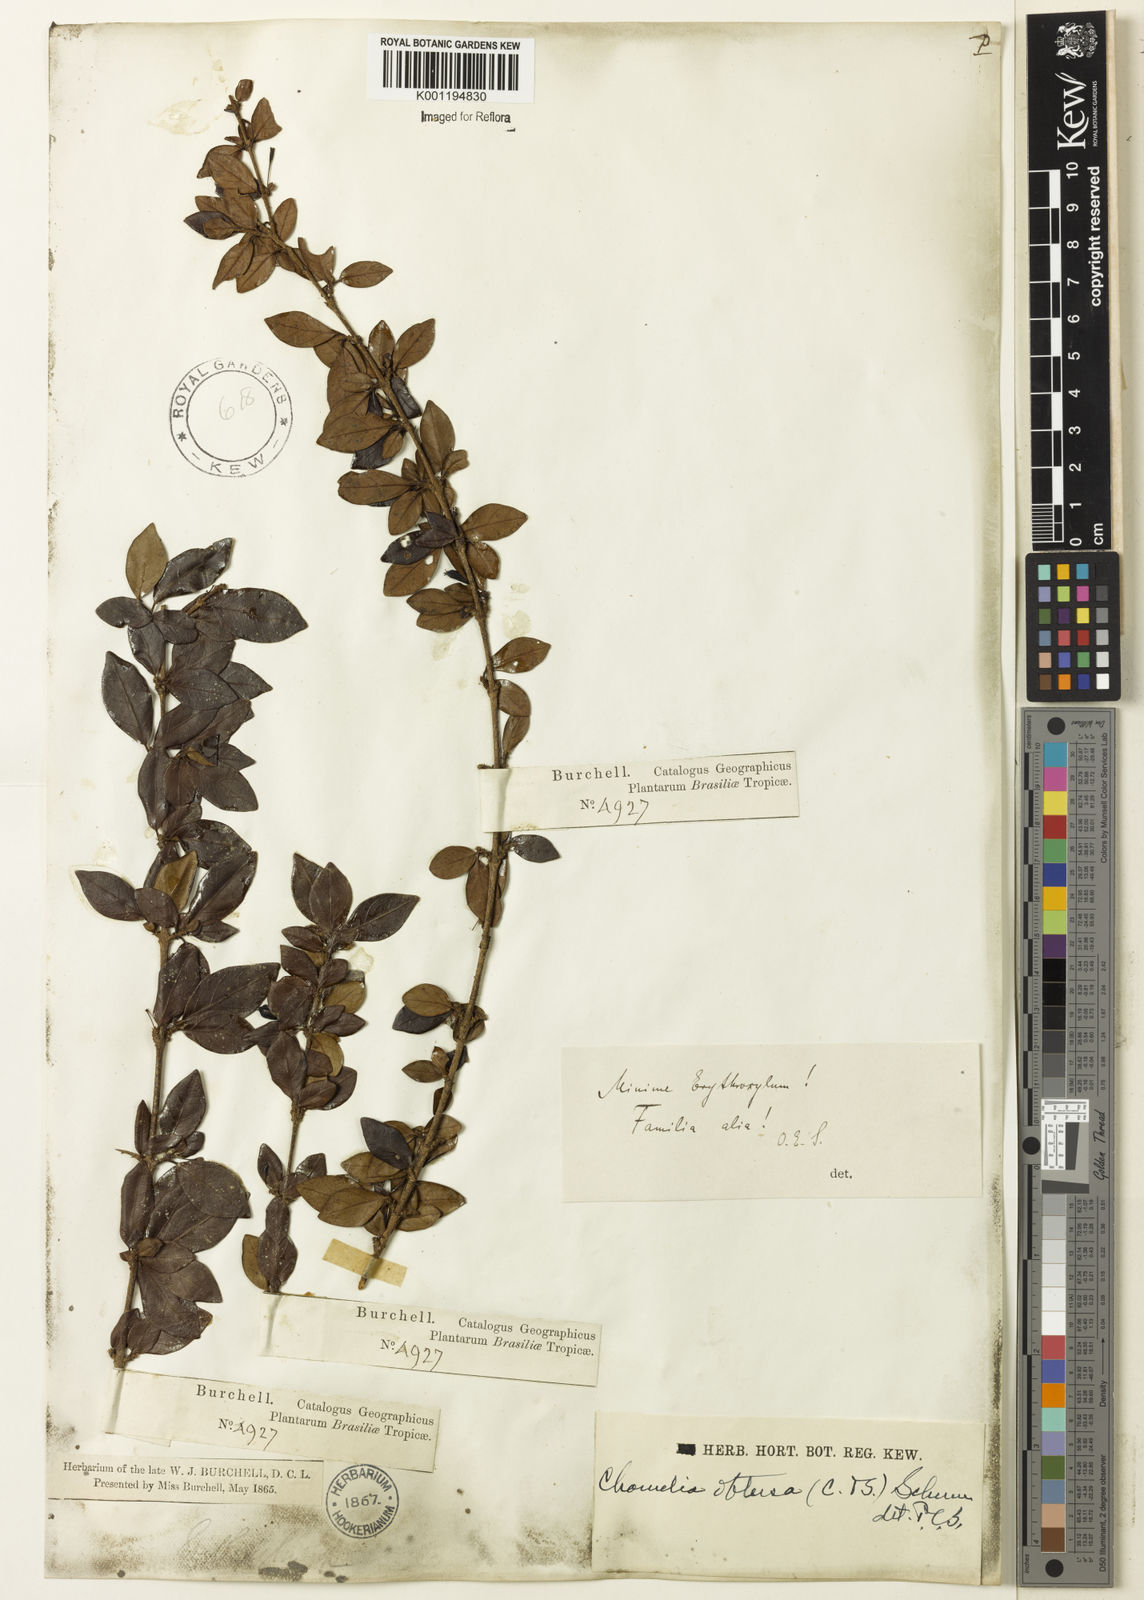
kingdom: Plantae
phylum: Tracheophyta
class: Magnoliopsida
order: Gentianales
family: Rubiaceae
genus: Chomelia
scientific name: Chomelia obtusa
